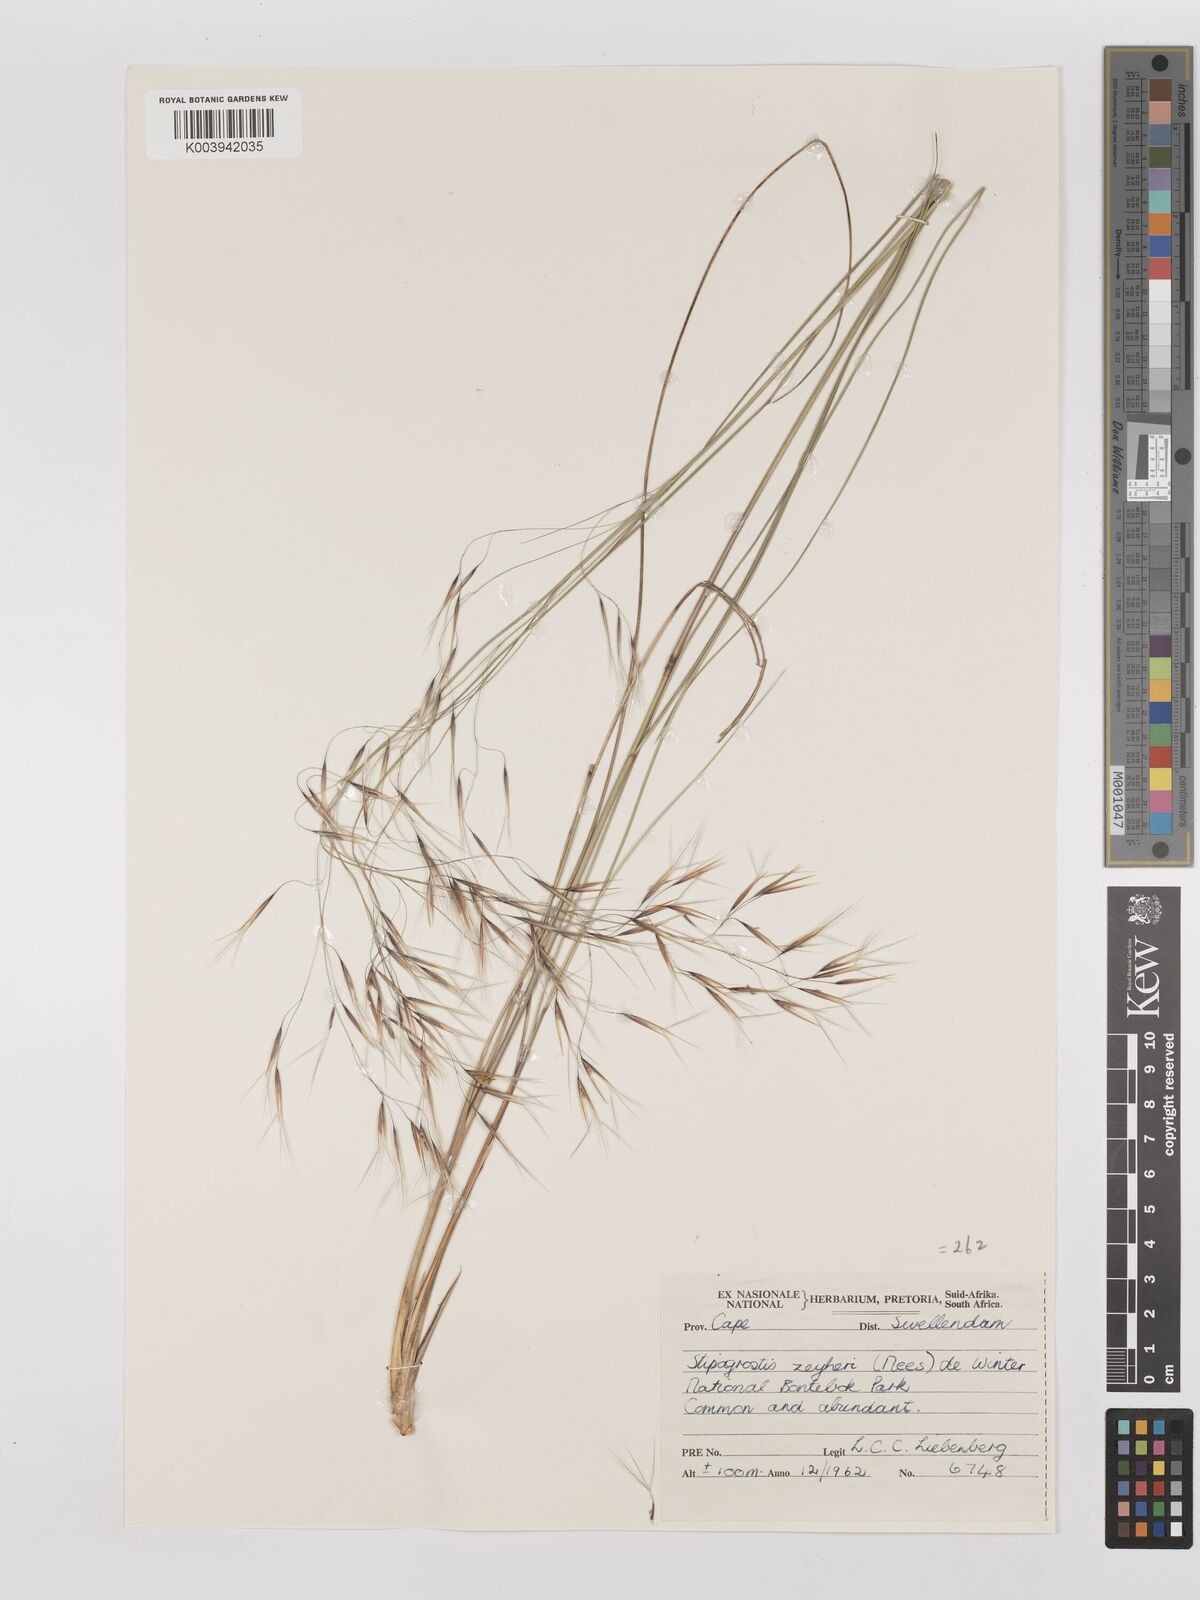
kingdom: Plantae
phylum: Tracheophyta
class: Liliopsida
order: Poales
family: Poaceae
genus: Stipagrostis
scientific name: Stipagrostis zeyheri
